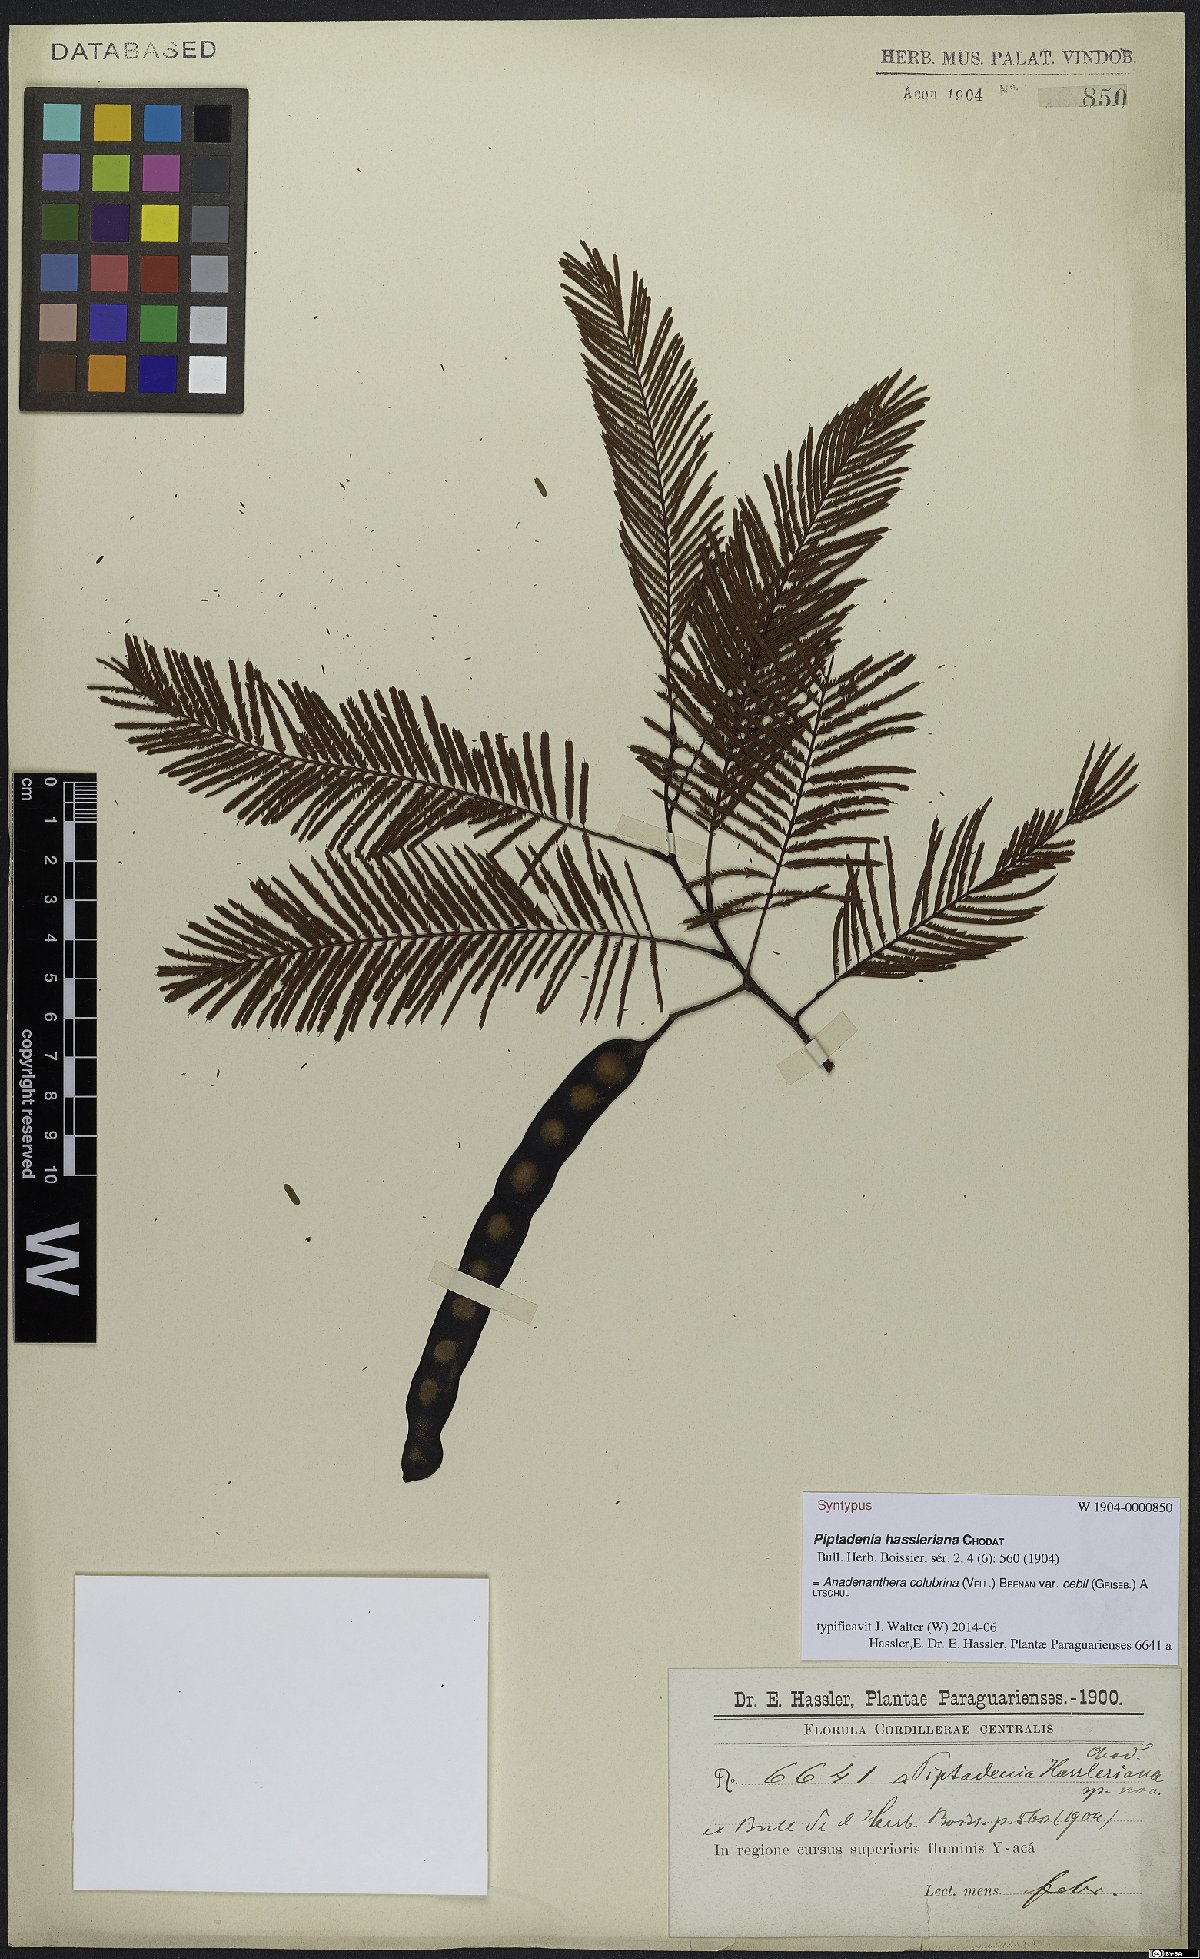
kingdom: Plantae
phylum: Tracheophyta
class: Magnoliopsida
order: Fabales
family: Fabaceae
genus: Anadenanthera
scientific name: Anadenanthera colubrina
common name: Curupay
